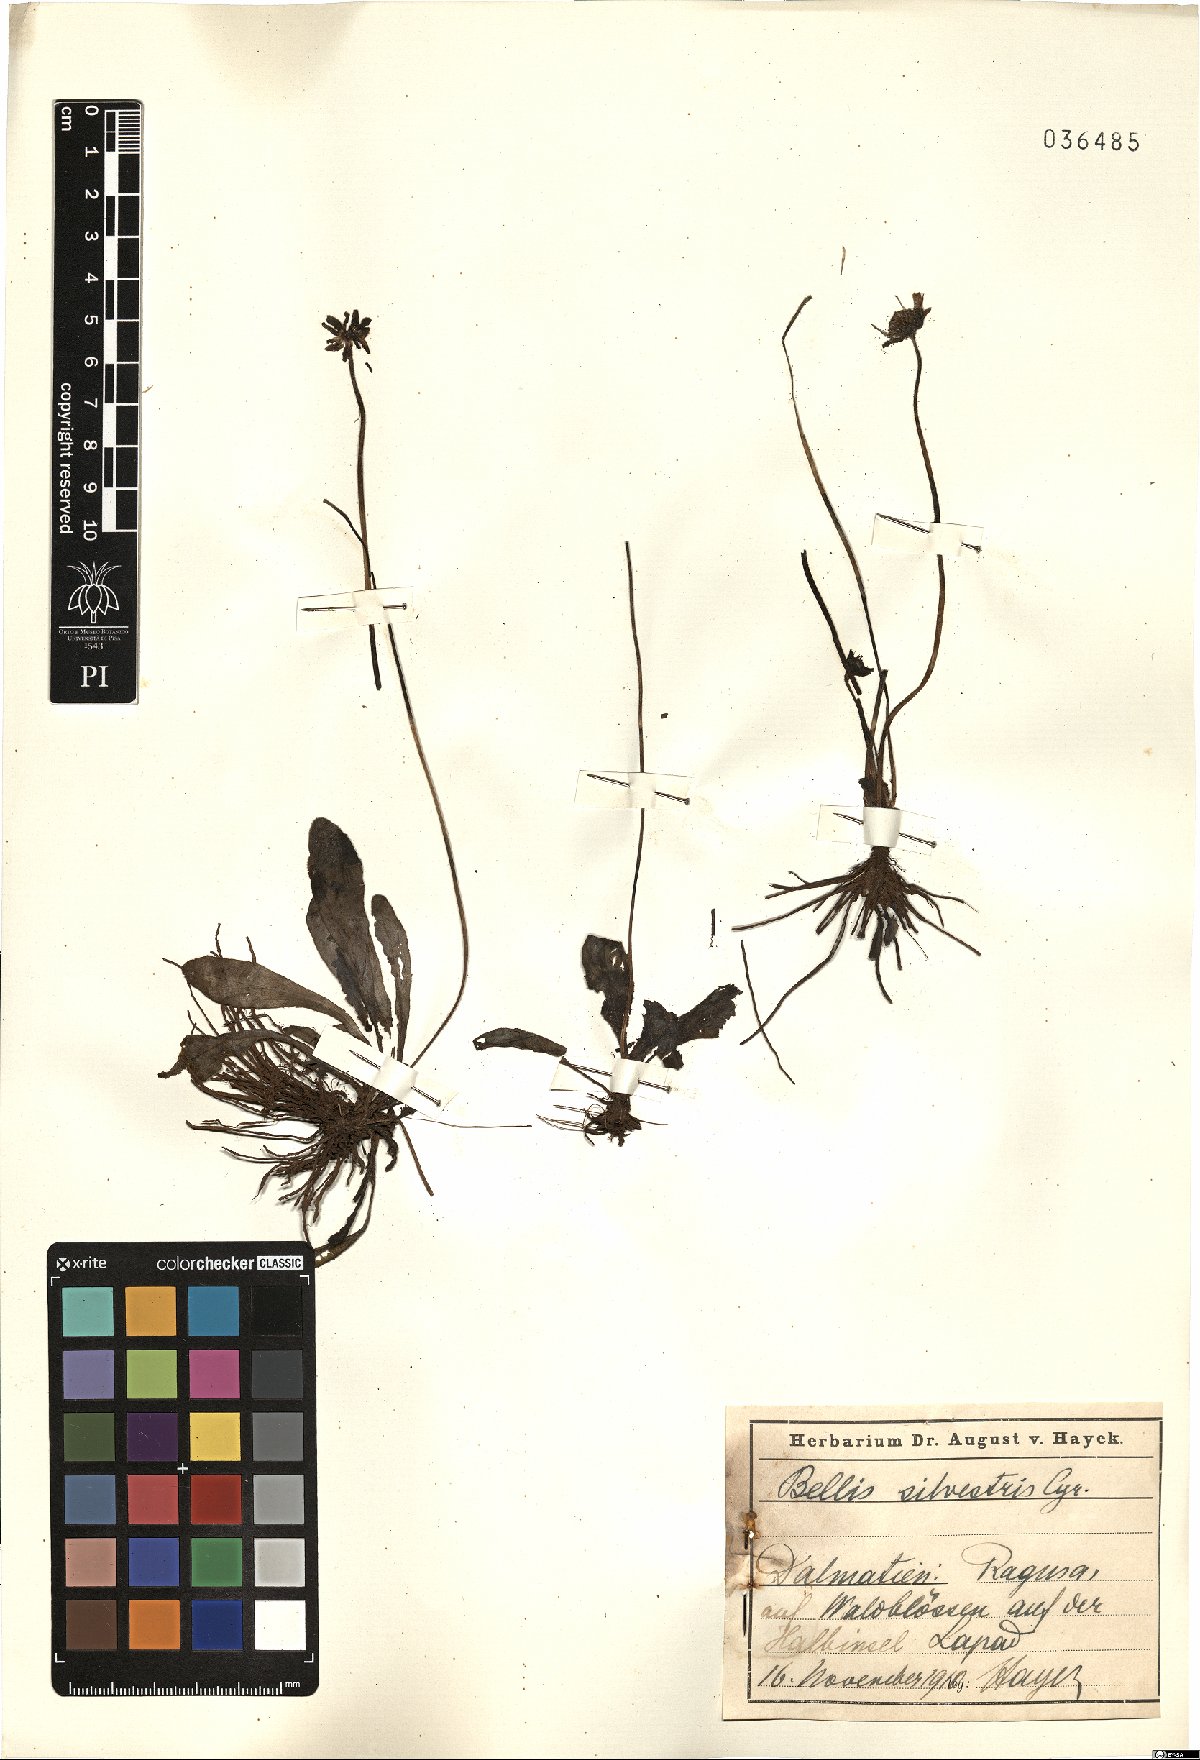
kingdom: Plantae
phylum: Tracheophyta
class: Magnoliopsida
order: Asterales
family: Asteraceae
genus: Bellis
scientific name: Bellis sylvestris
